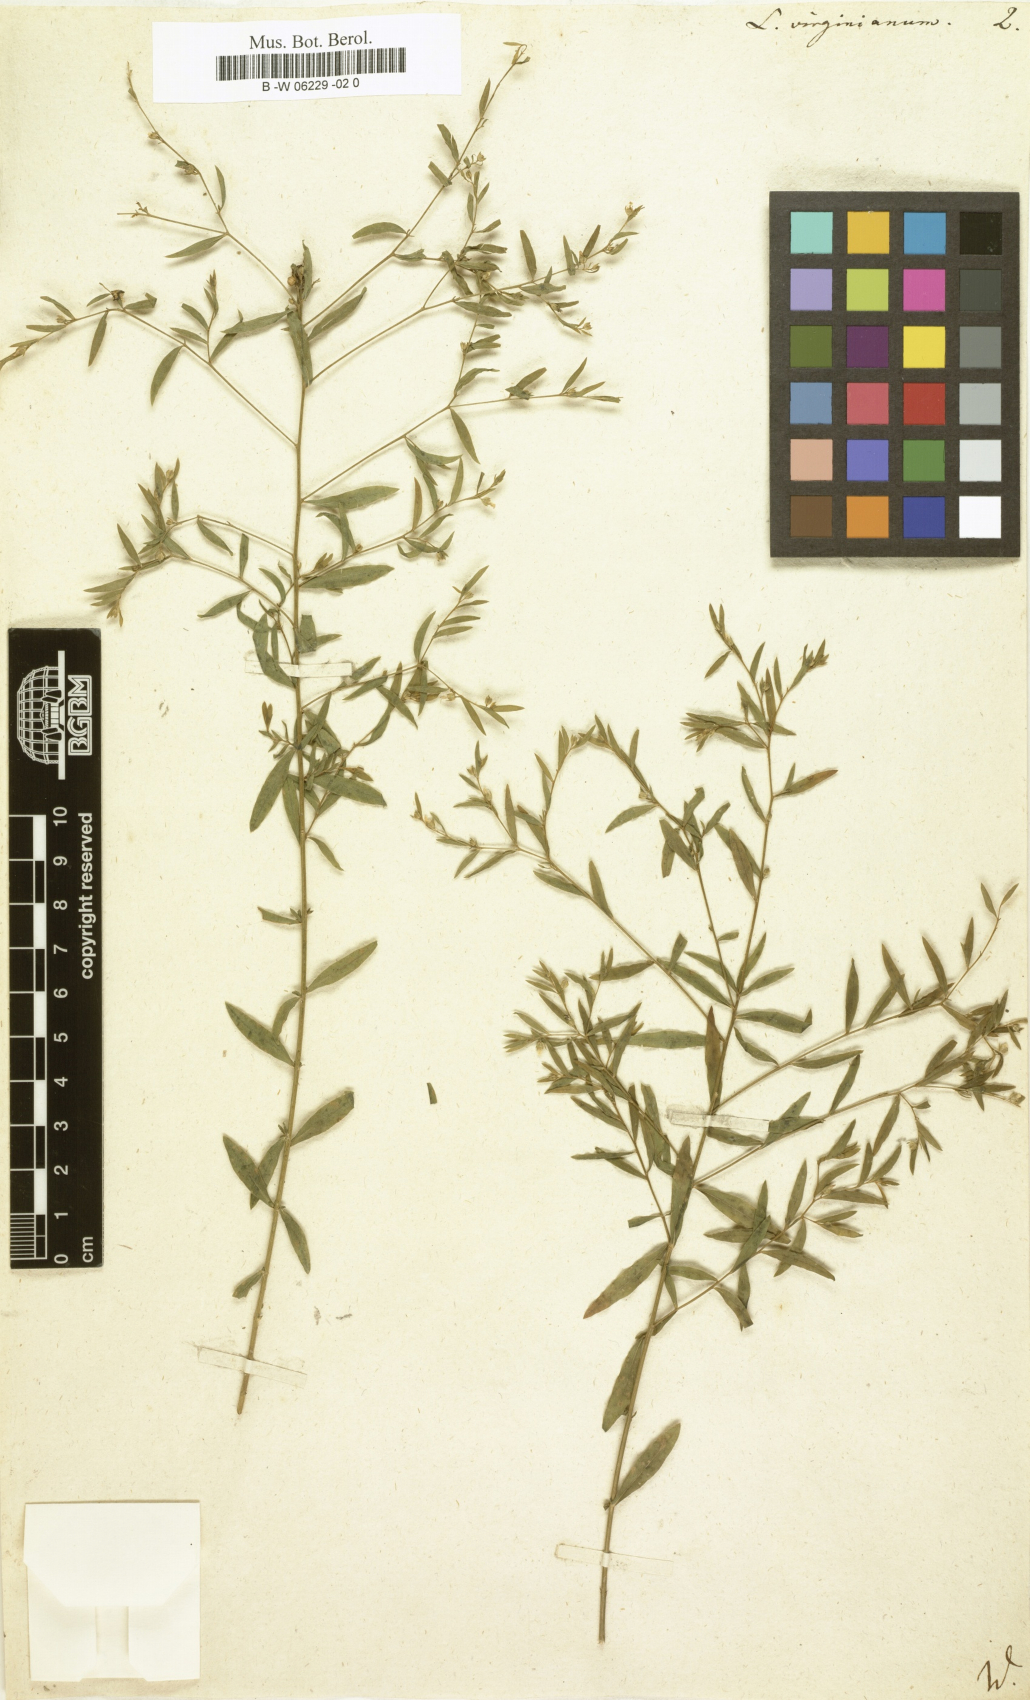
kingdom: Plantae
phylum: Tracheophyta
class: Magnoliopsida
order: Malpighiales
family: Linaceae
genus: Linum
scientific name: Linum virginianum
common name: Slender yellow flax
